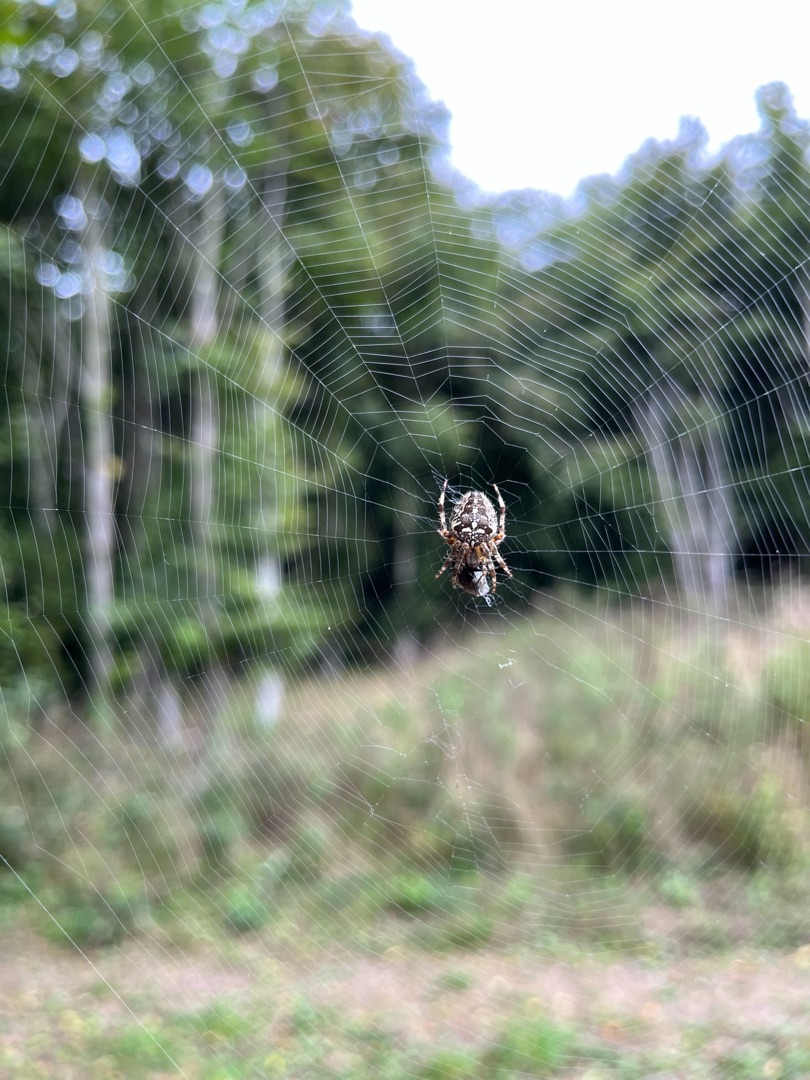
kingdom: Animalia
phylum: Arthropoda
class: Arachnida
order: Araneae
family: Araneidae
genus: Araneus
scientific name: Araneus diadematus
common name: Korsedderkop
